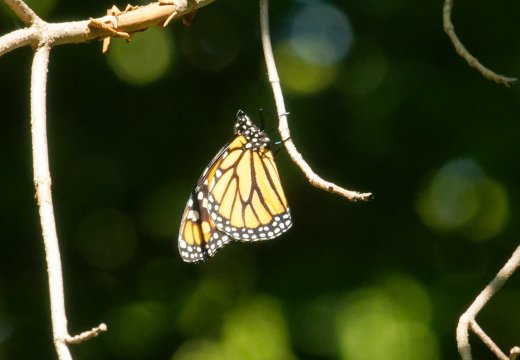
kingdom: Animalia
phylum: Arthropoda
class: Insecta
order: Lepidoptera
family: Nymphalidae
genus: Danaus
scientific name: Danaus plexippus
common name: Monarch
